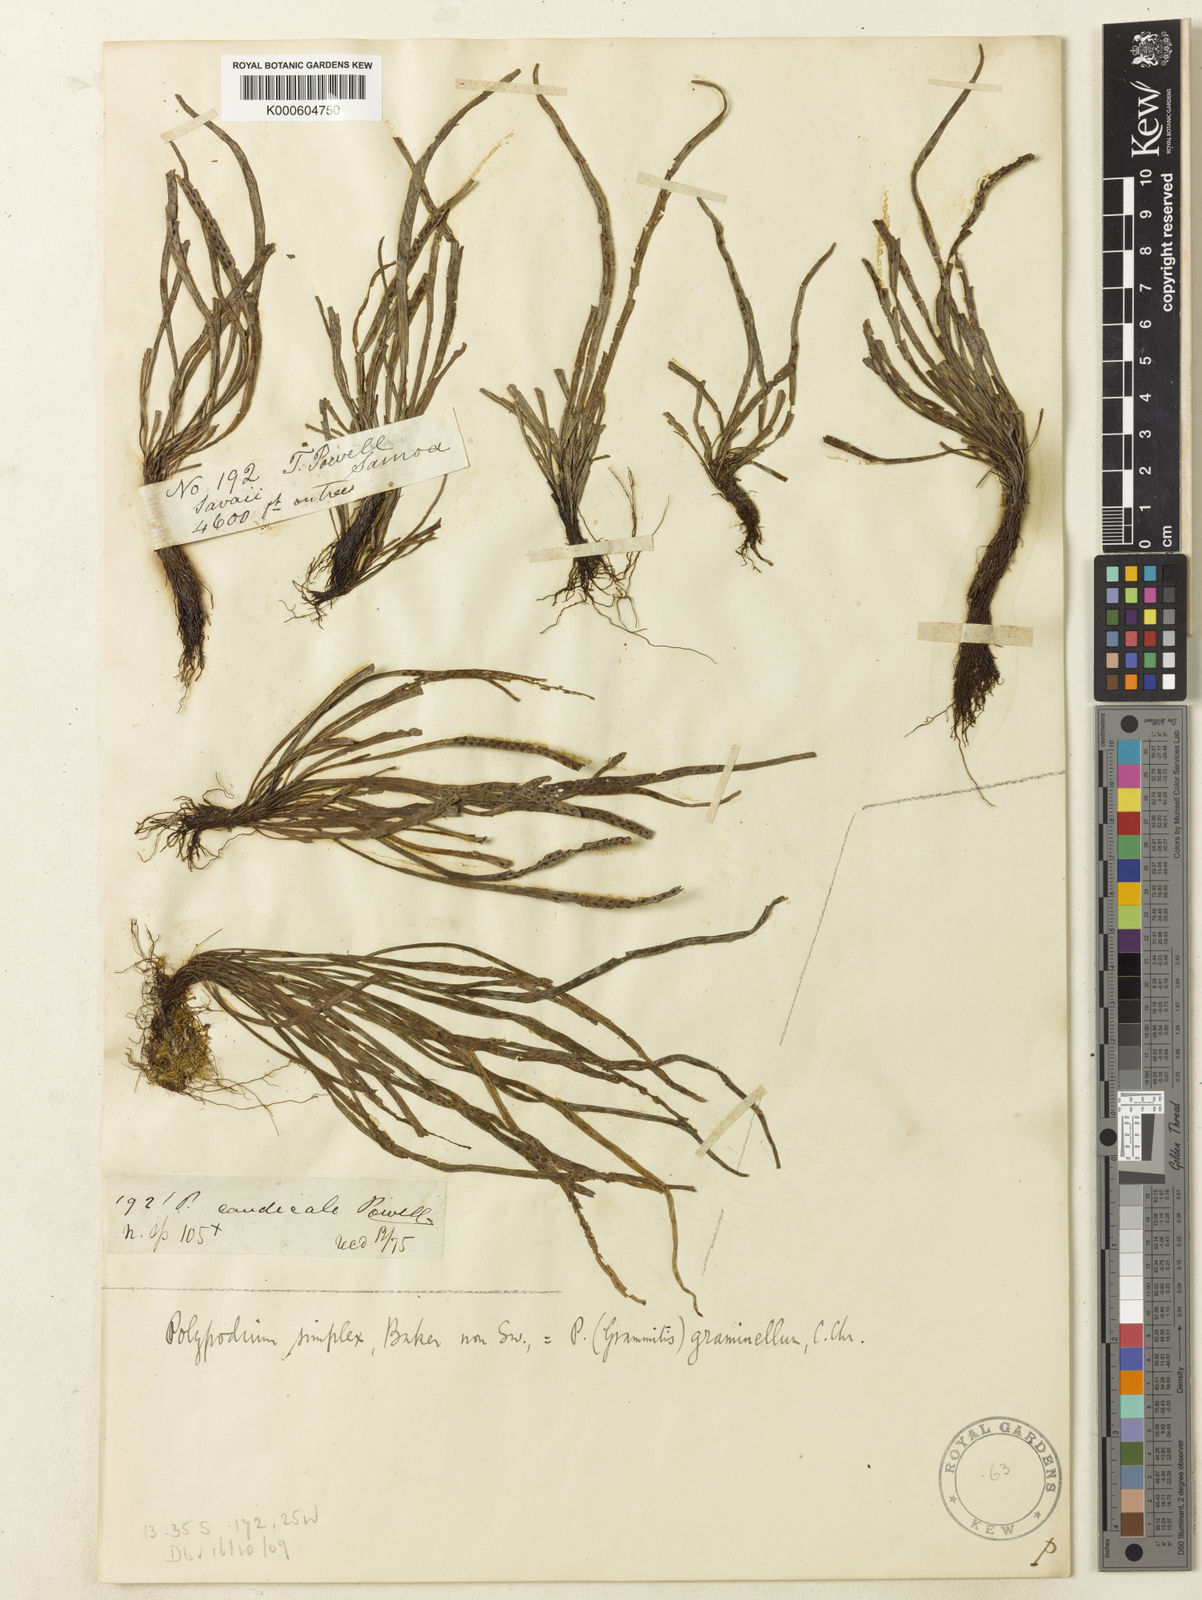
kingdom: Plantae
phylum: Tracheophyta
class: Polypodiopsida
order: Polypodiales
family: Polypodiaceae
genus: Grammitis
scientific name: Grammitis
